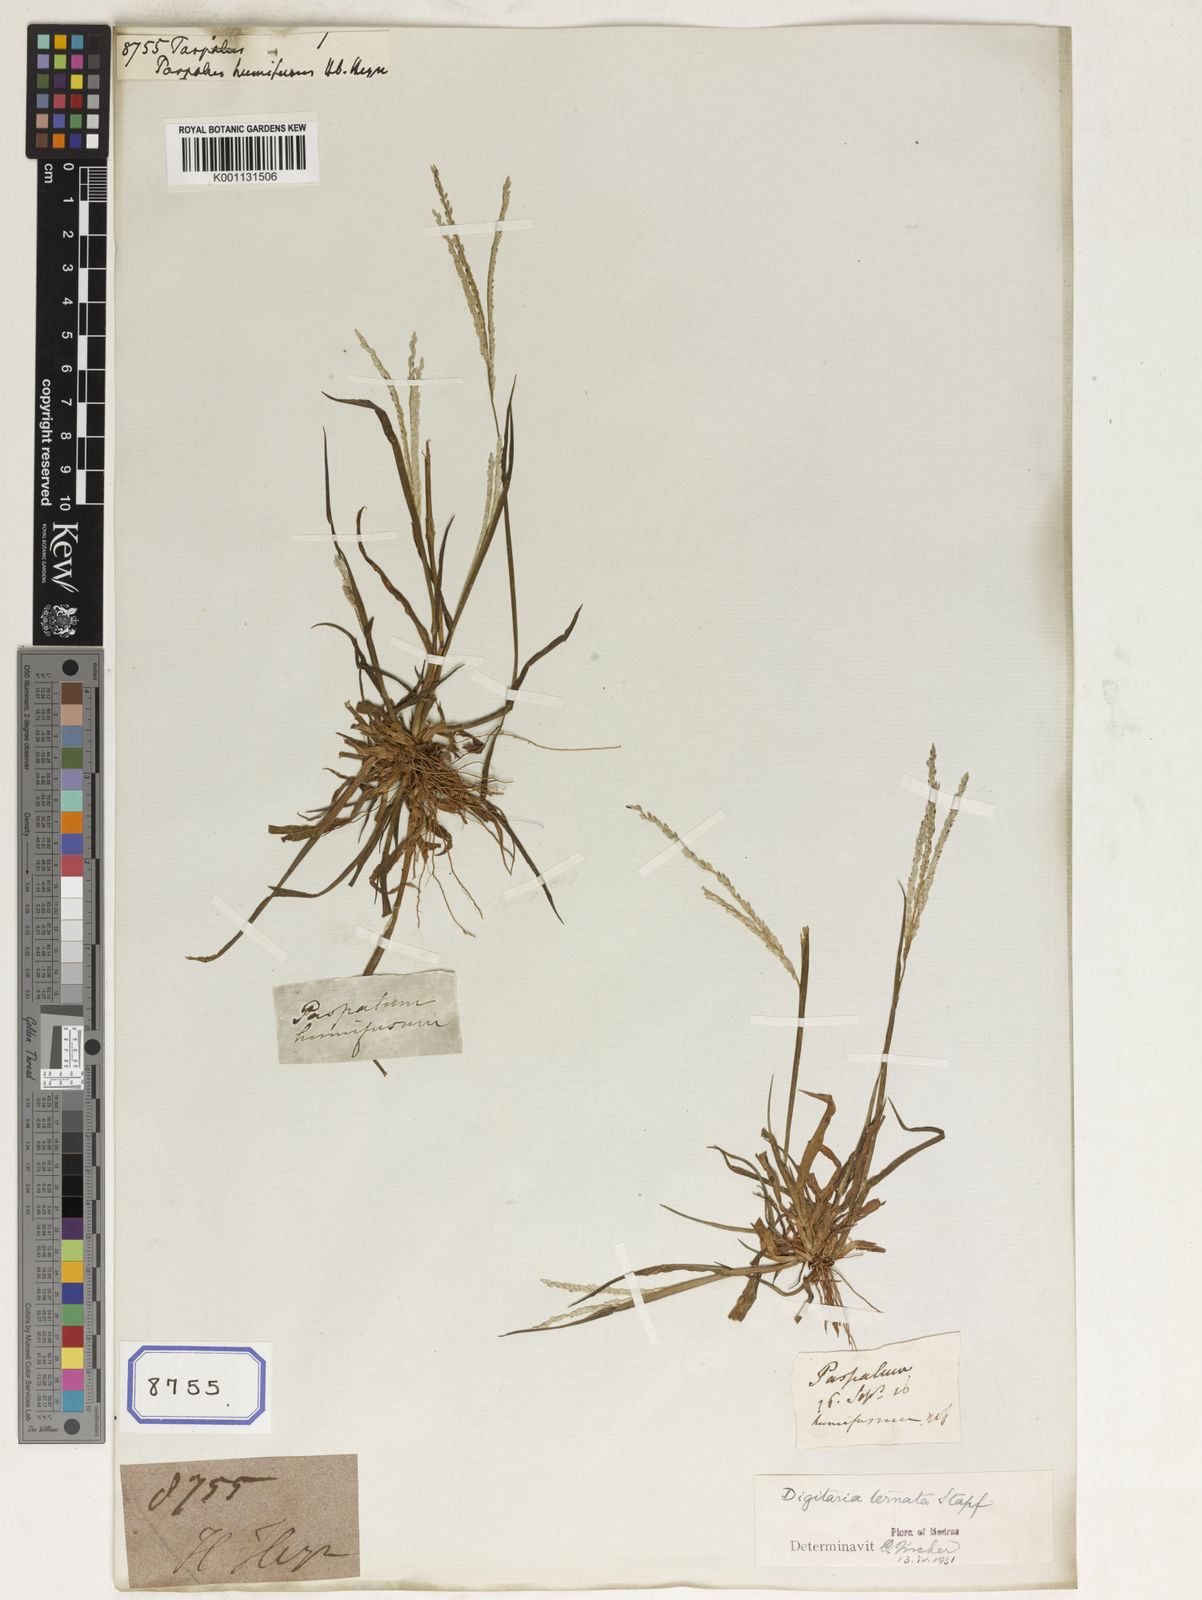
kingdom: Plantae
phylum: Tracheophyta
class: Liliopsida
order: Poales
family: Poaceae
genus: Paspalum
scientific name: Paspalum
